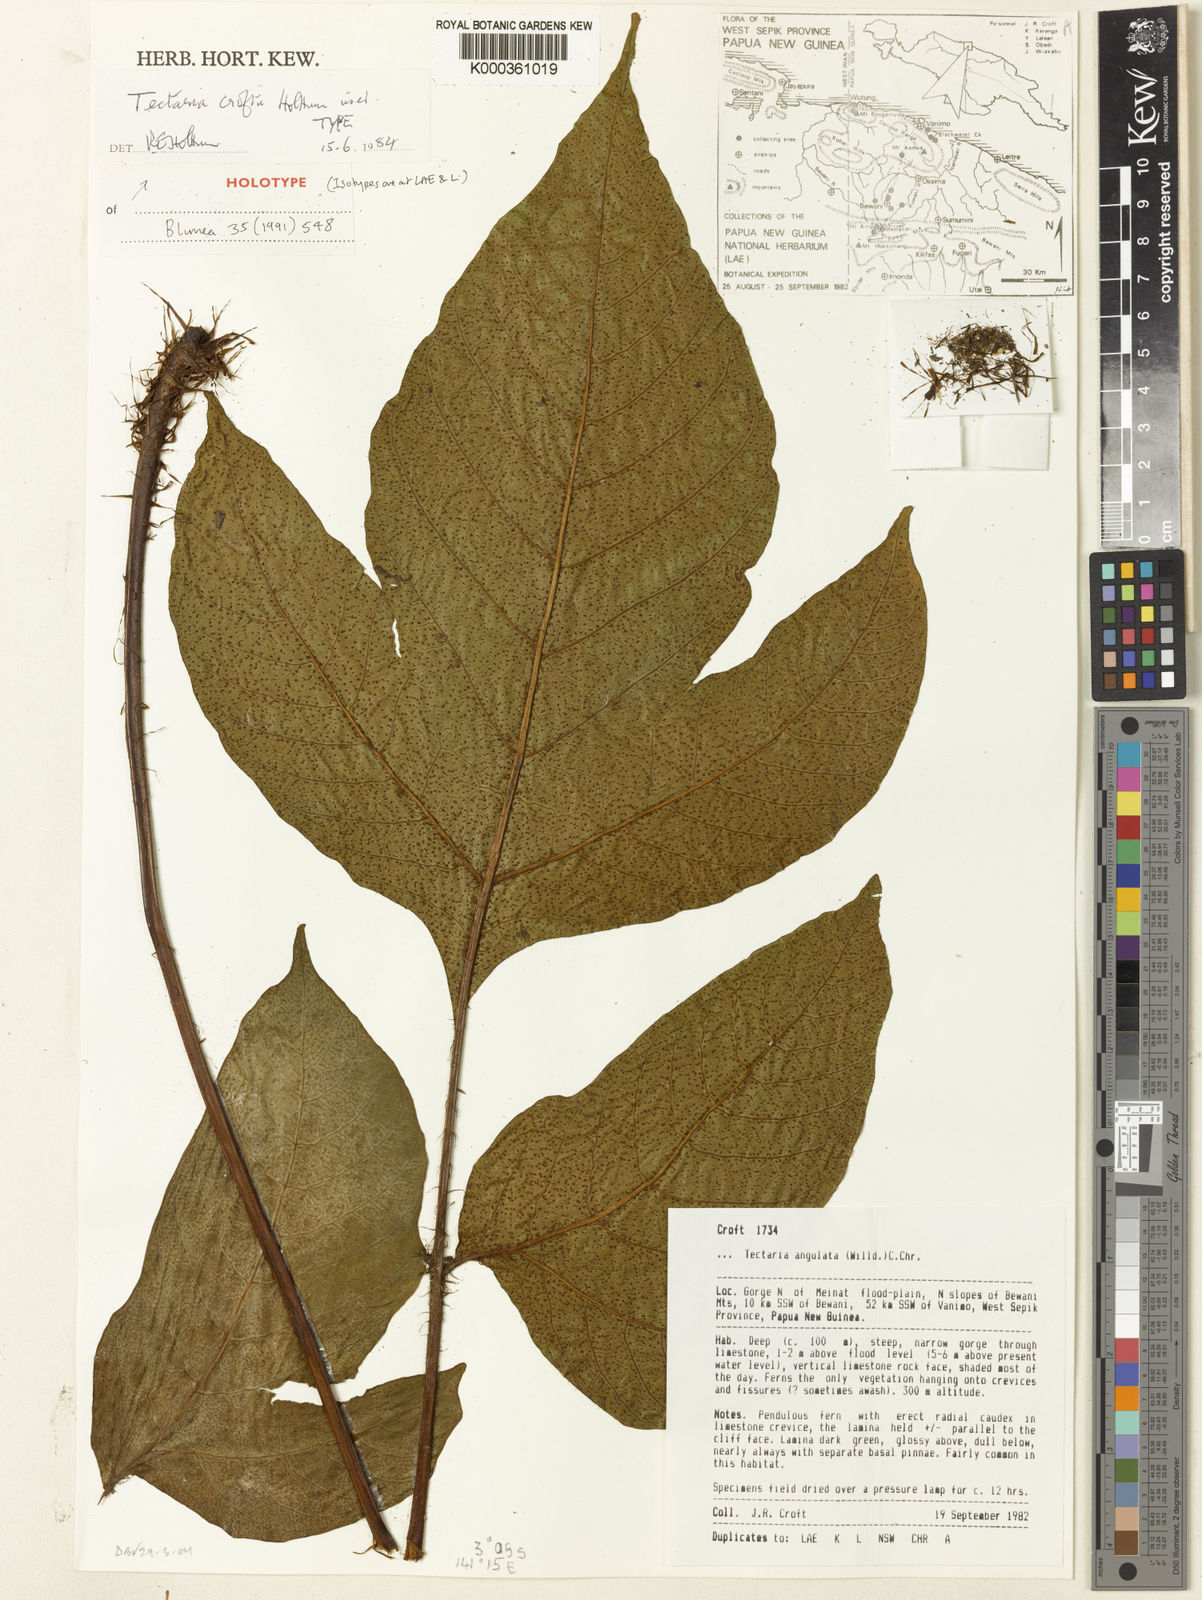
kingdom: Plantae
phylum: Tracheophyta
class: Polypodiopsida
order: Polypodiales
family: Tectariaceae
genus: Tectaria
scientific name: Tectaria croftii
